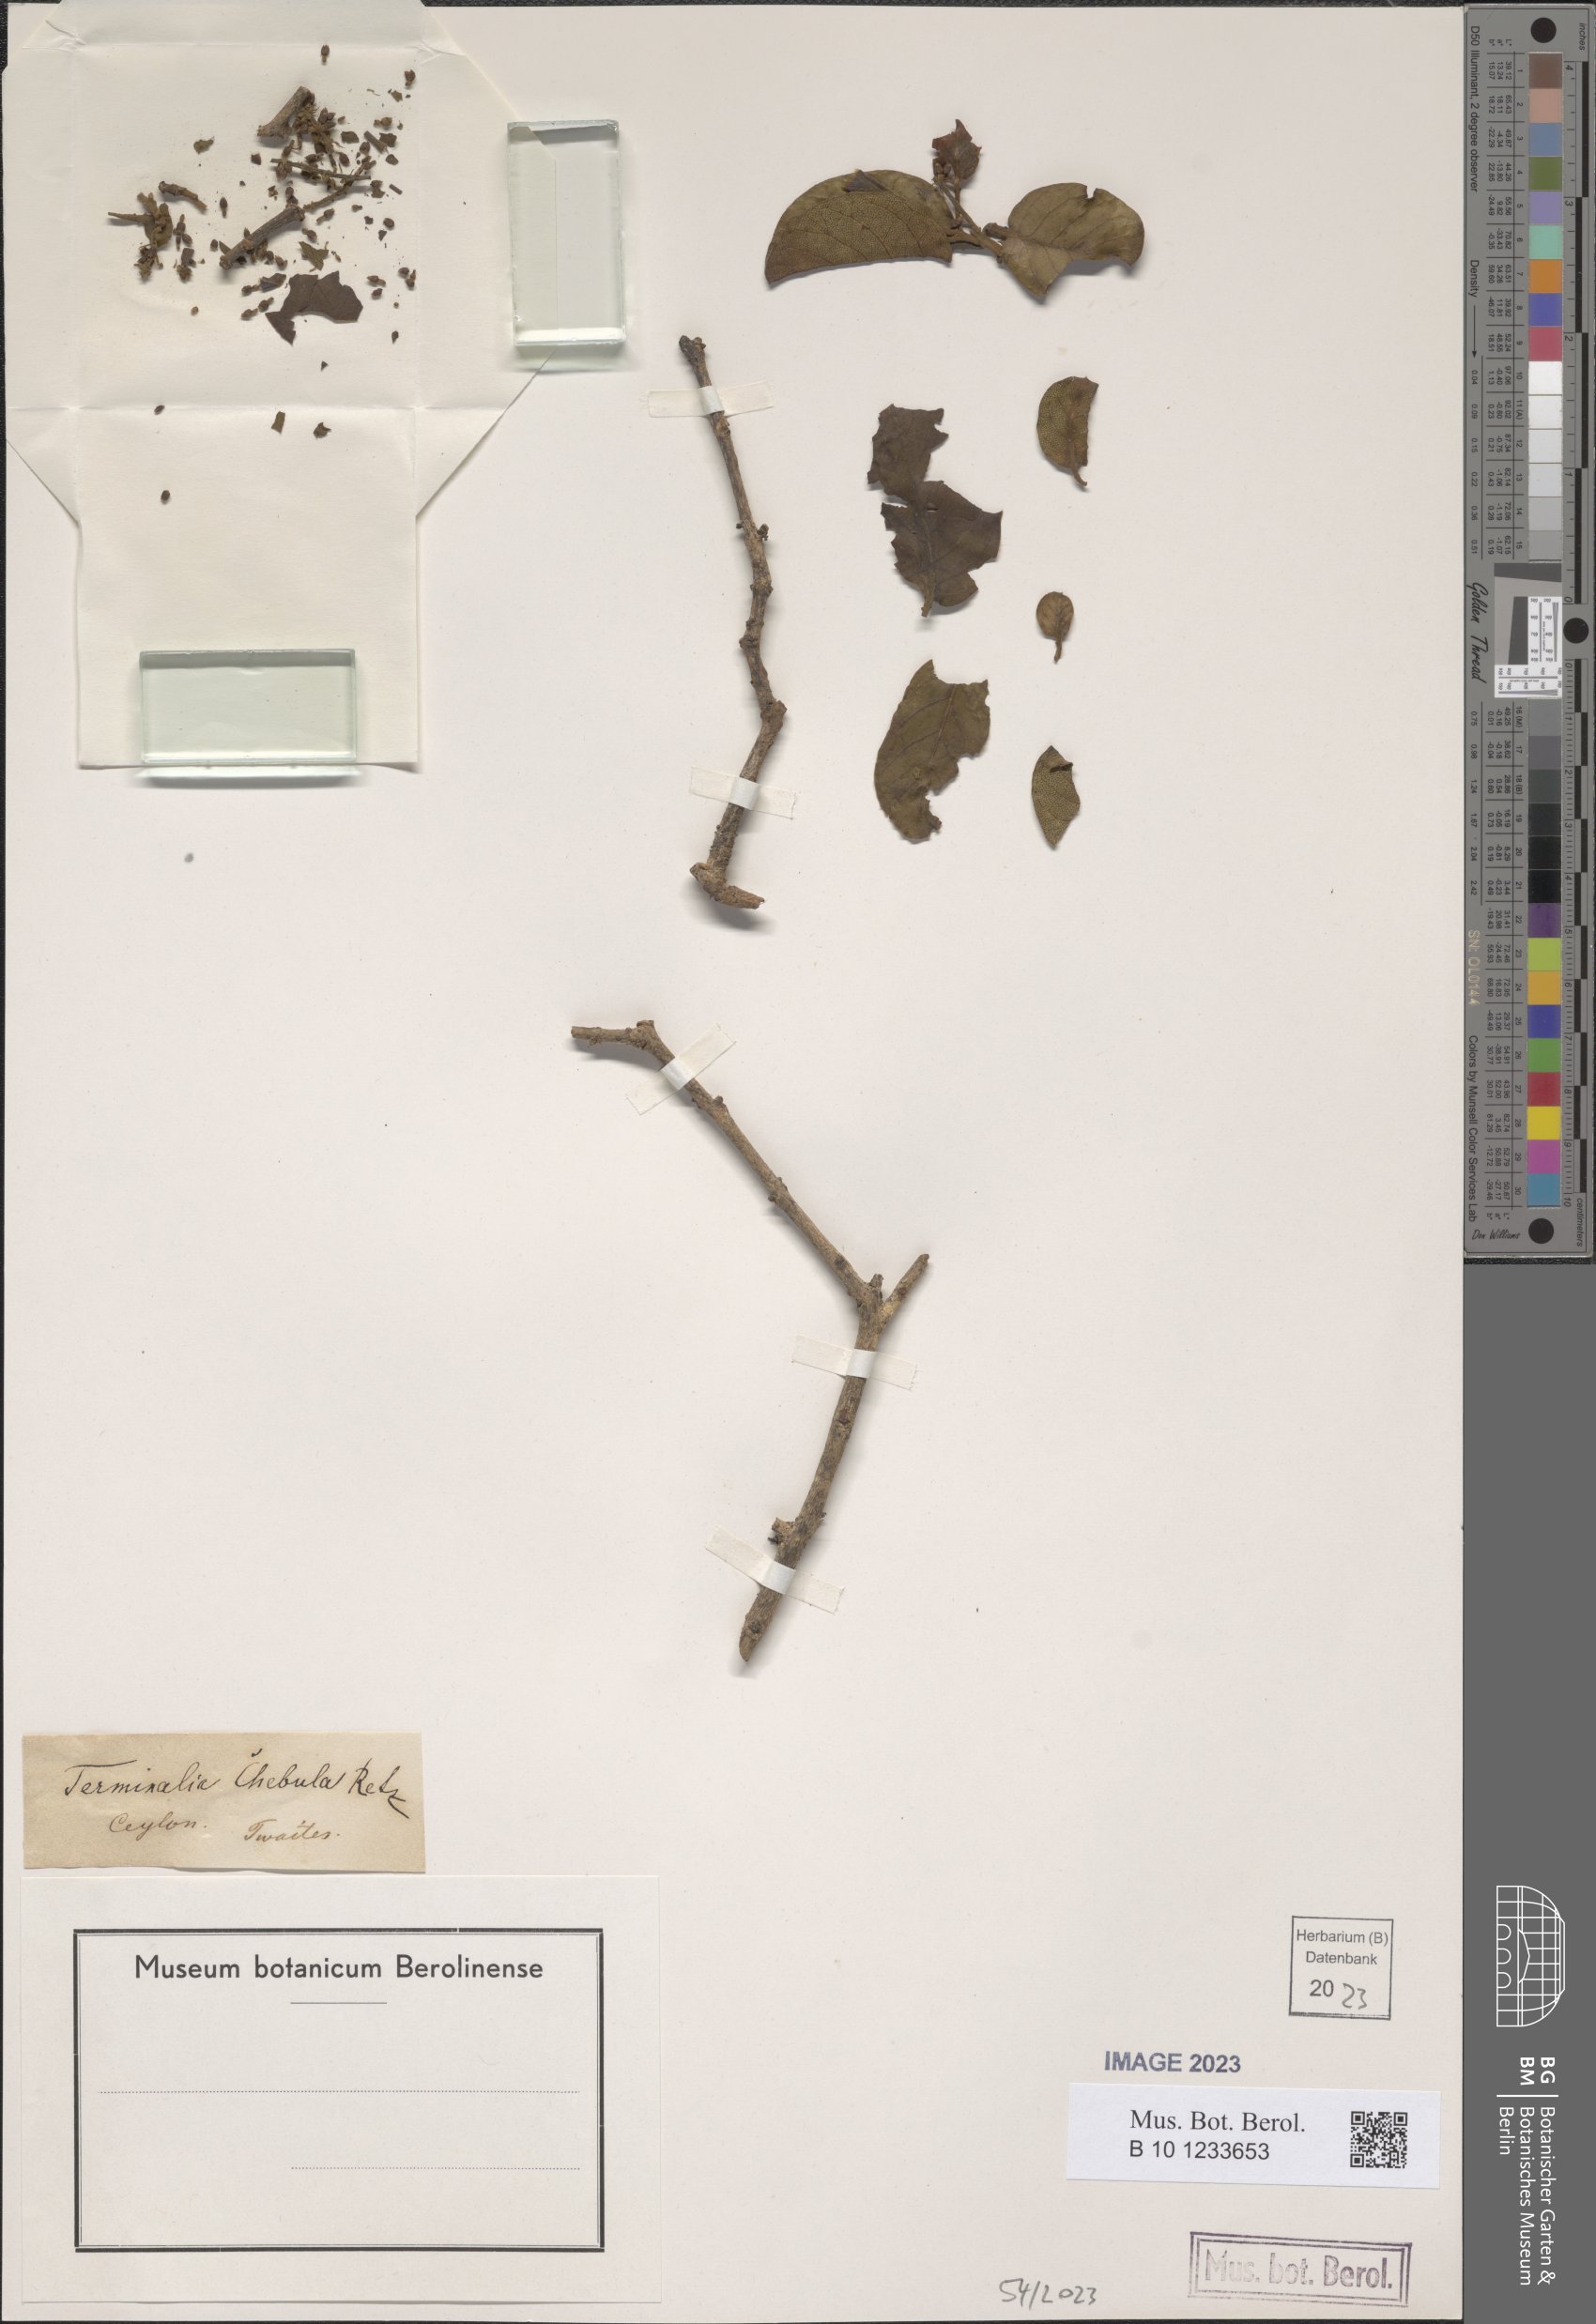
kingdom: Plantae
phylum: Tracheophyta
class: Magnoliopsida
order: Myrtales
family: Combretaceae
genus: Terminalia
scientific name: Terminalia chebula
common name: Myrobalan
